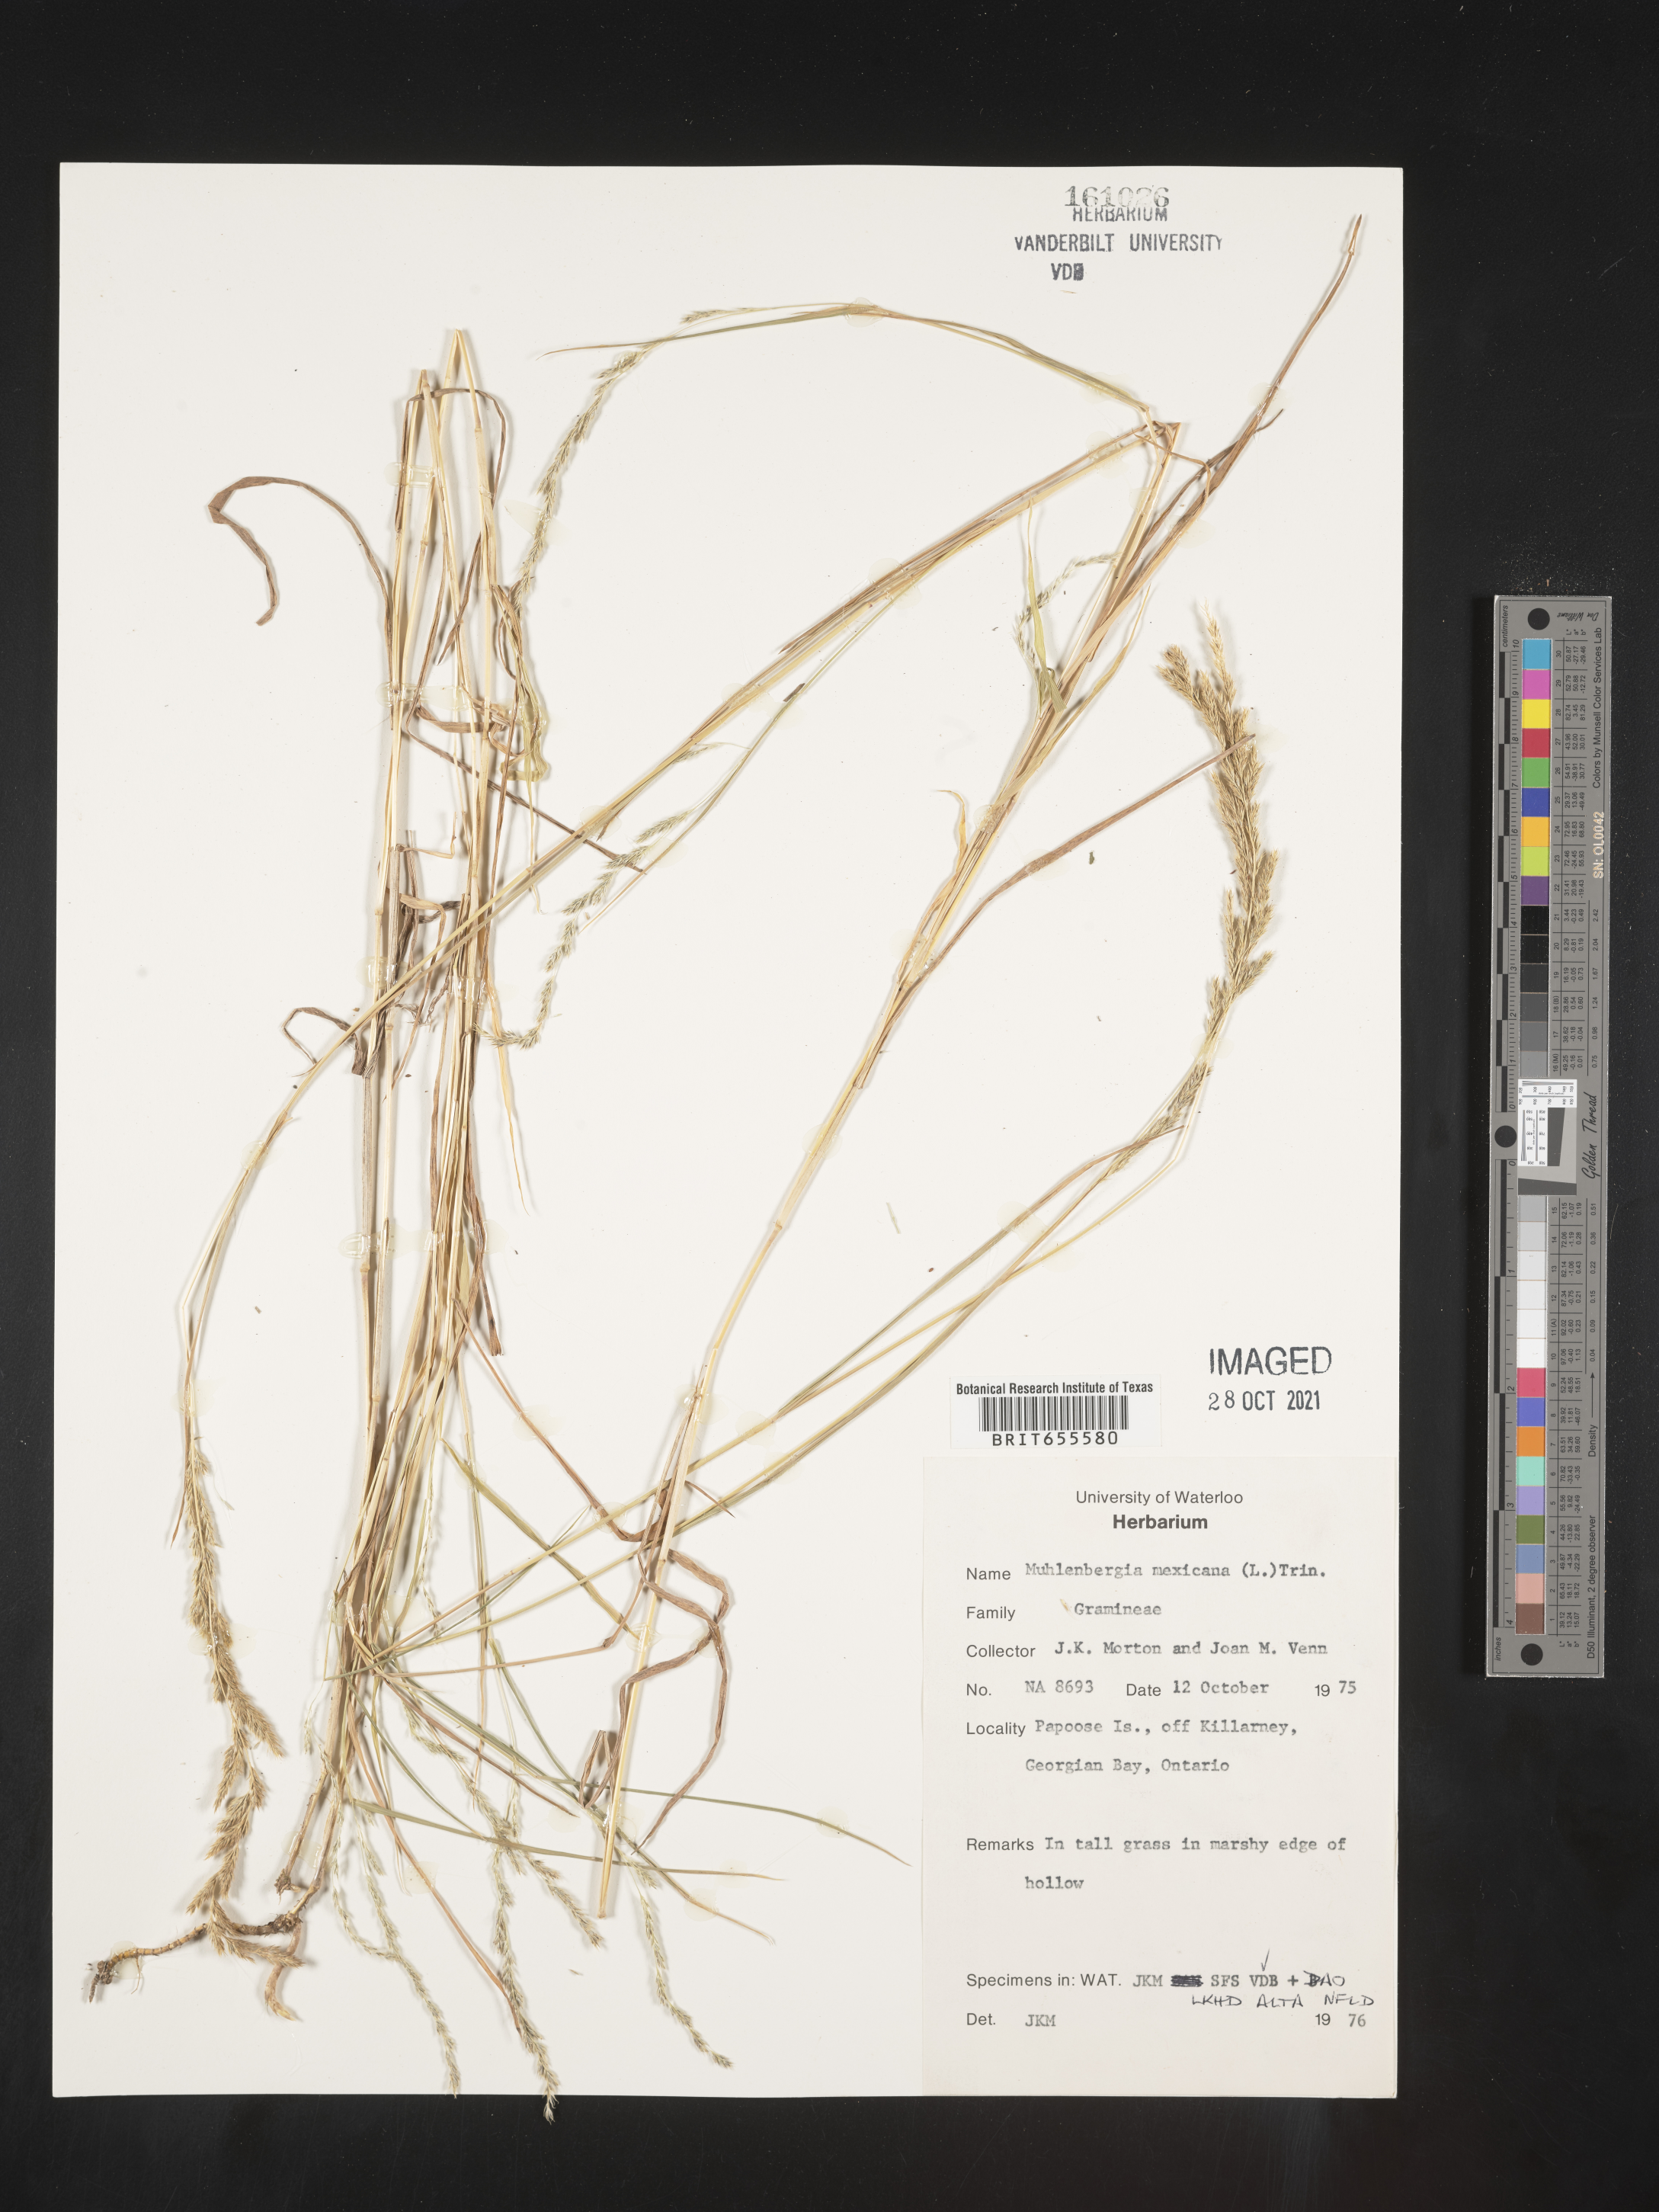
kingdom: Plantae
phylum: Tracheophyta
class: Liliopsida
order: Poales
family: Poaceae
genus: Muhlenbergia
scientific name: Muhlenbergia
